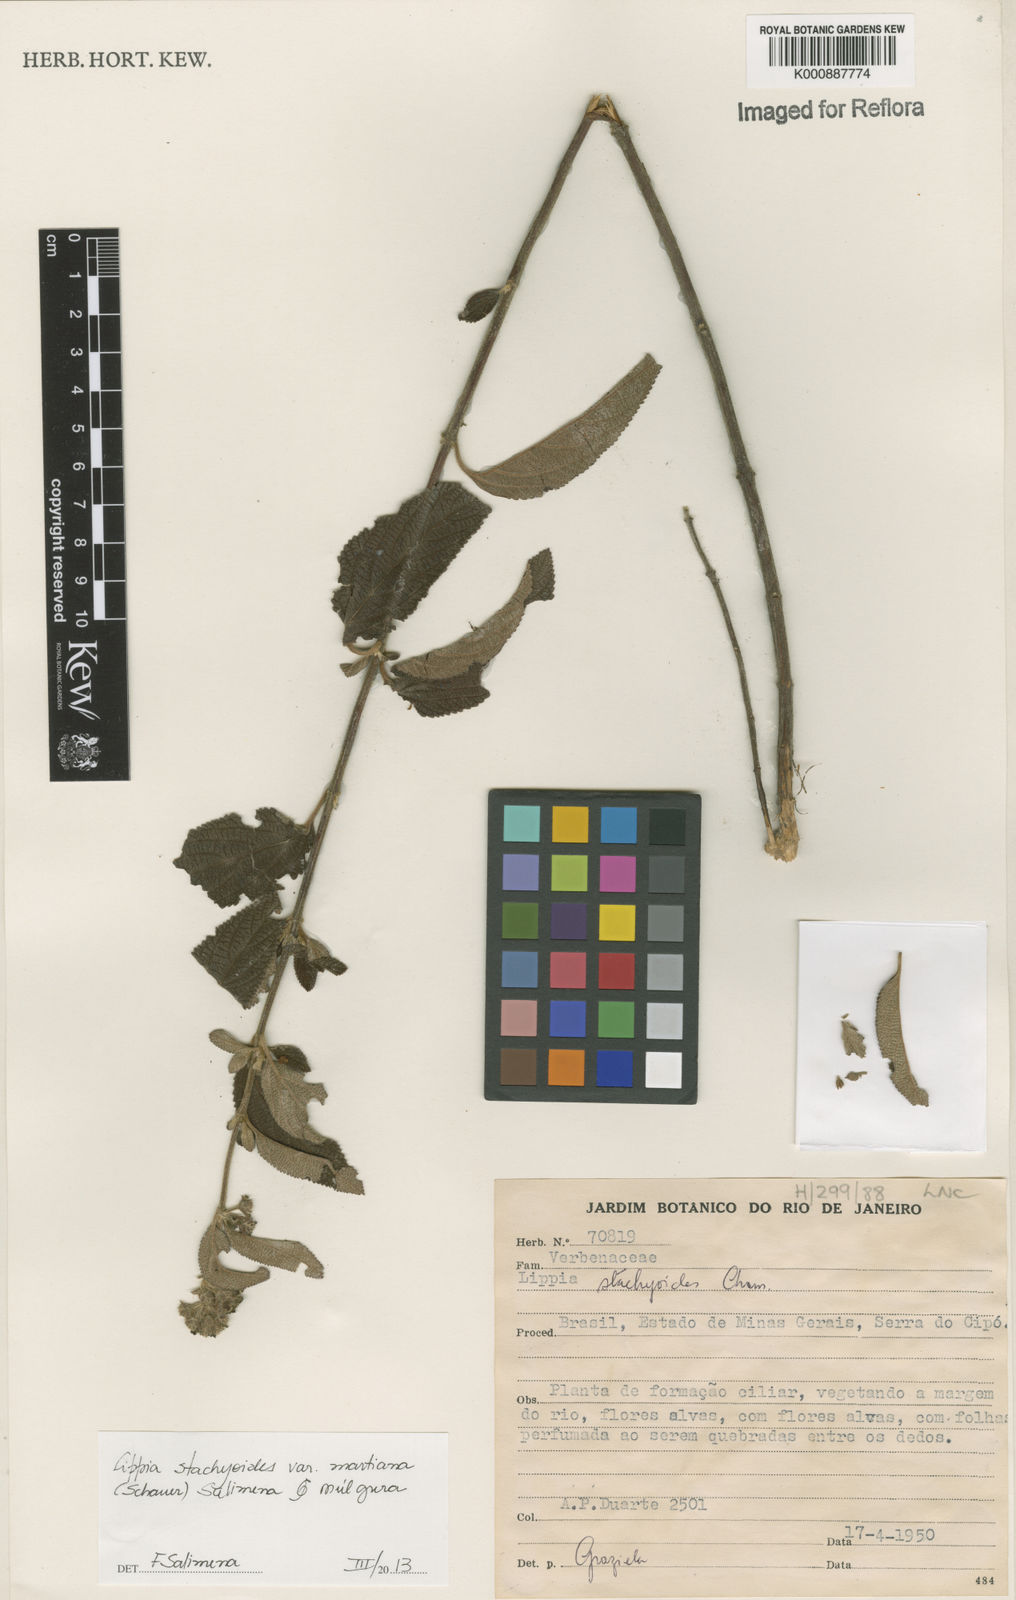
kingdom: Plantae
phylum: Tracheophyta
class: Magnoliopsida
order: Lamiales
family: Verbenaceae
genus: Lippia
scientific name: Lippia stachyoides
